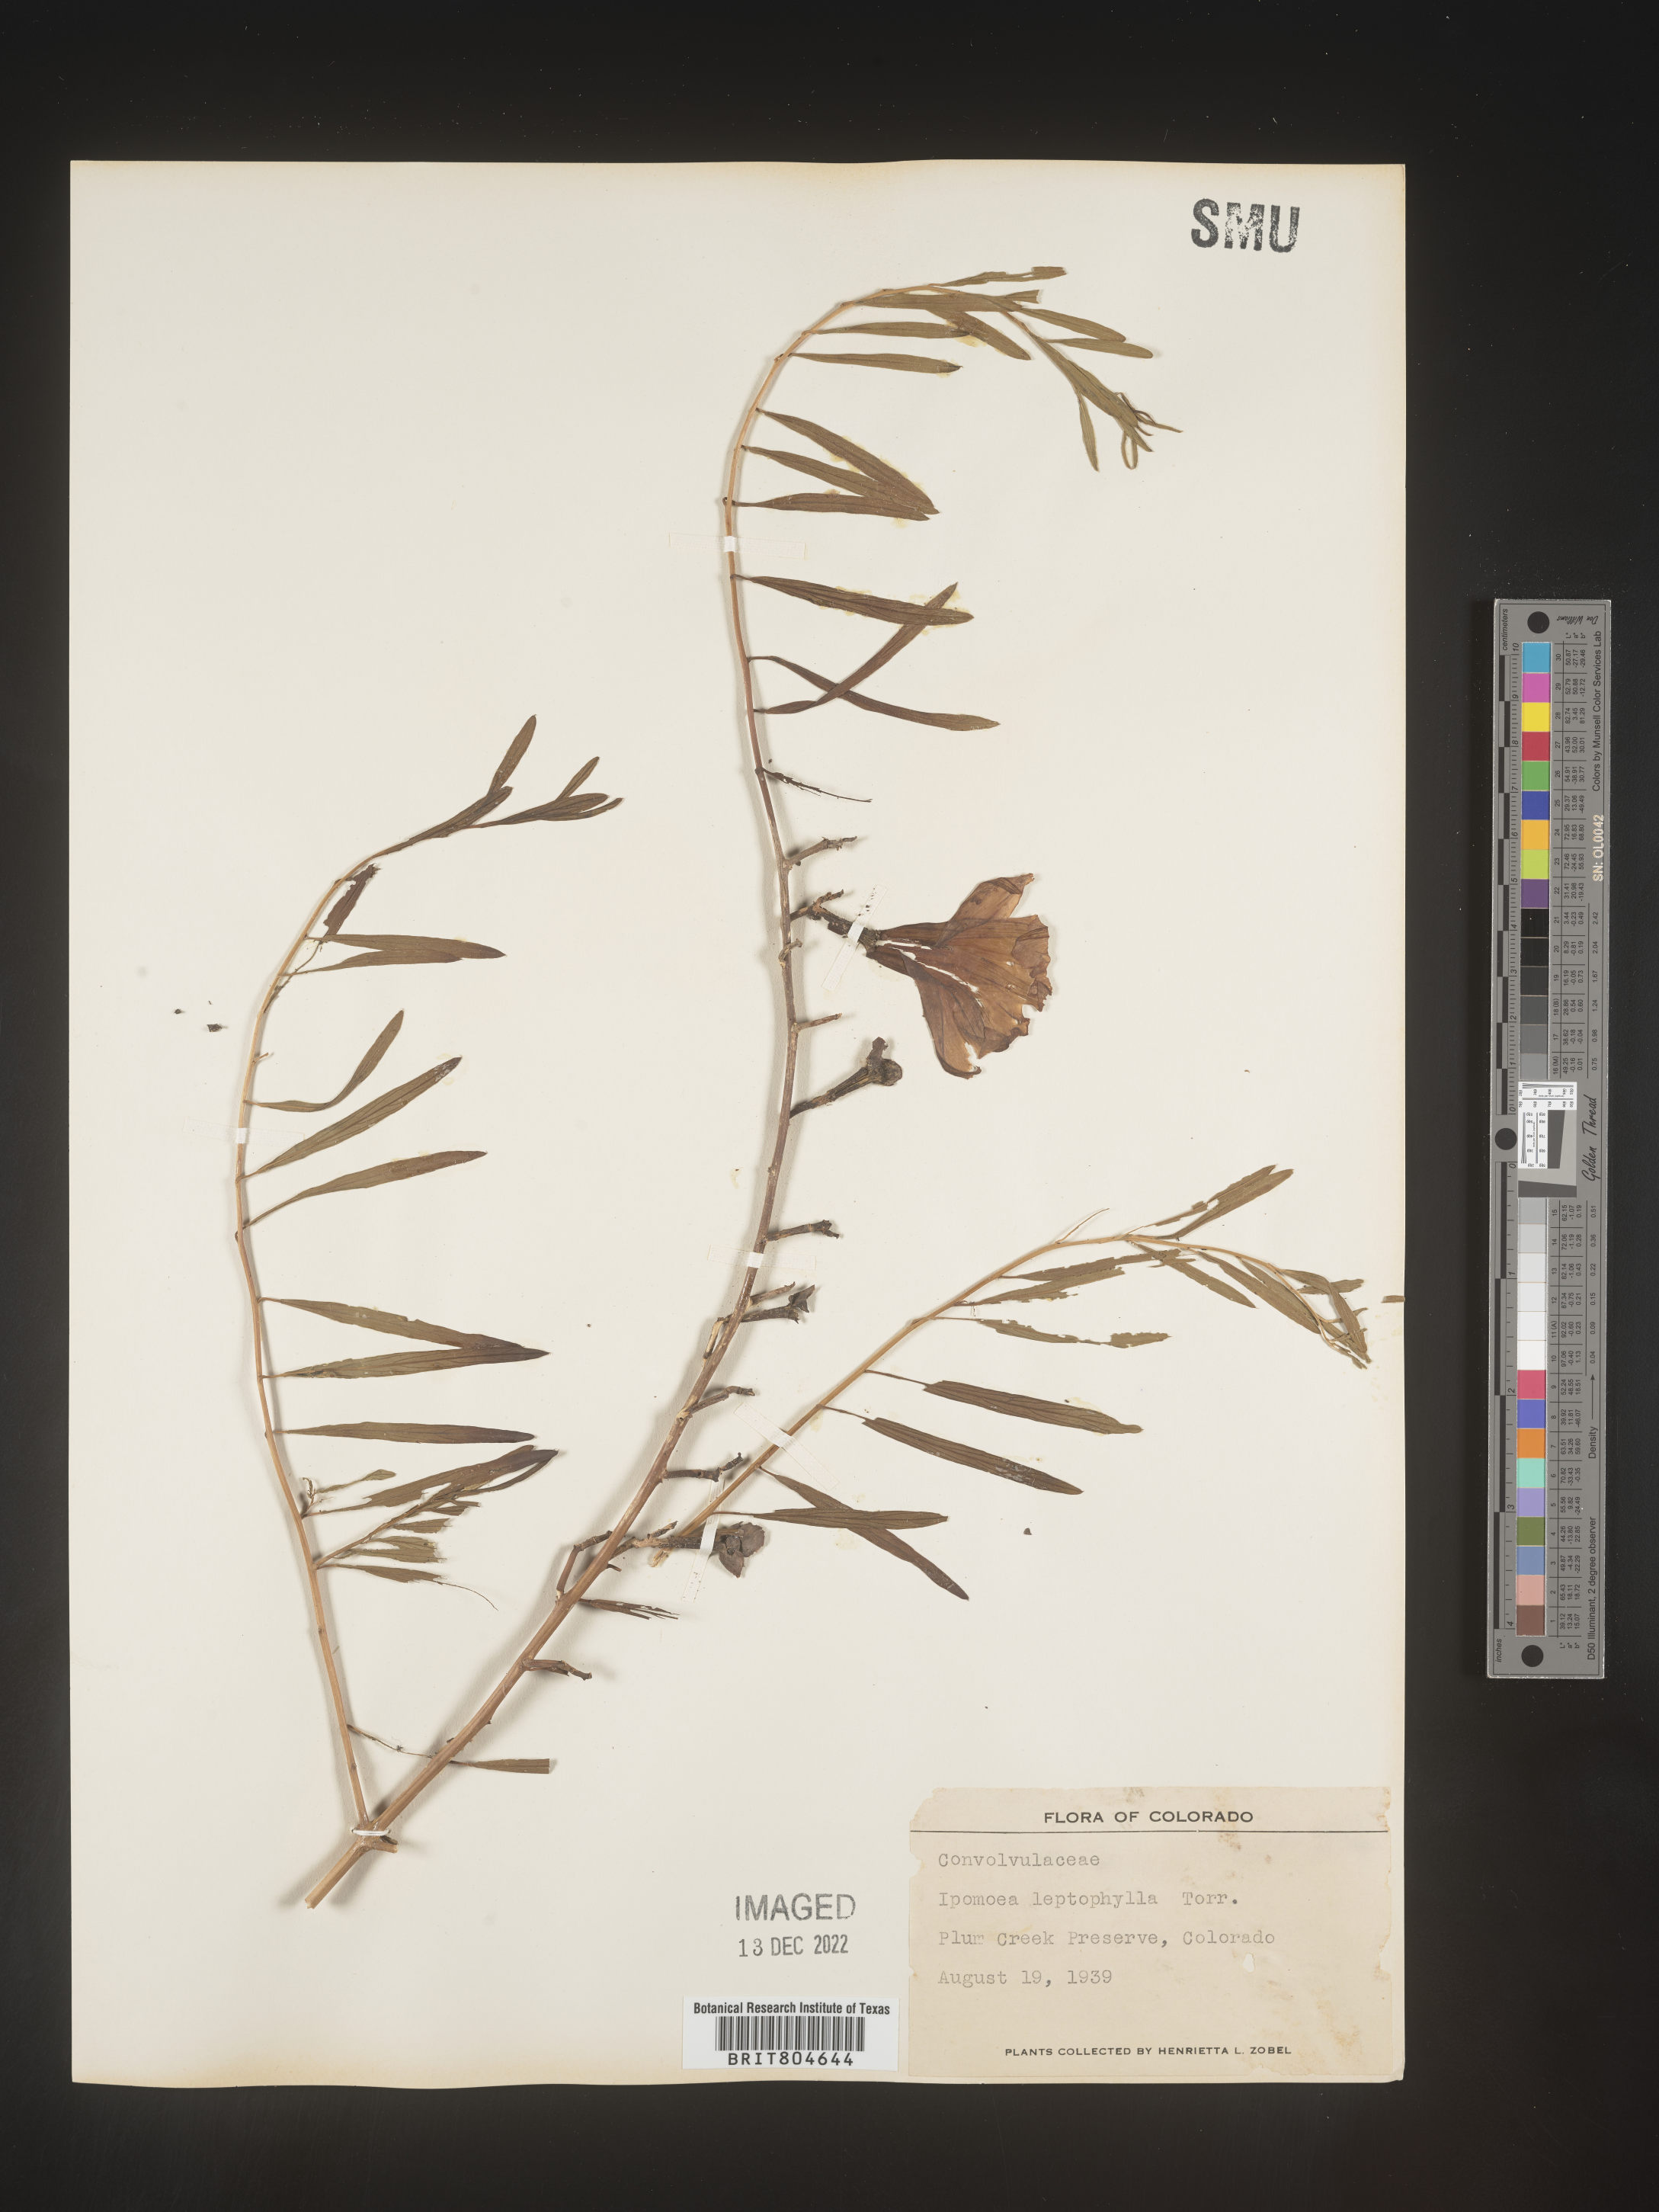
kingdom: Plantae
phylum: Tracheophyta
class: Magnoliopsida
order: Solanales
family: Convolvulaceae
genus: Ipomoea
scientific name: Ipomoea leptophylla
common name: Bush moonflower
